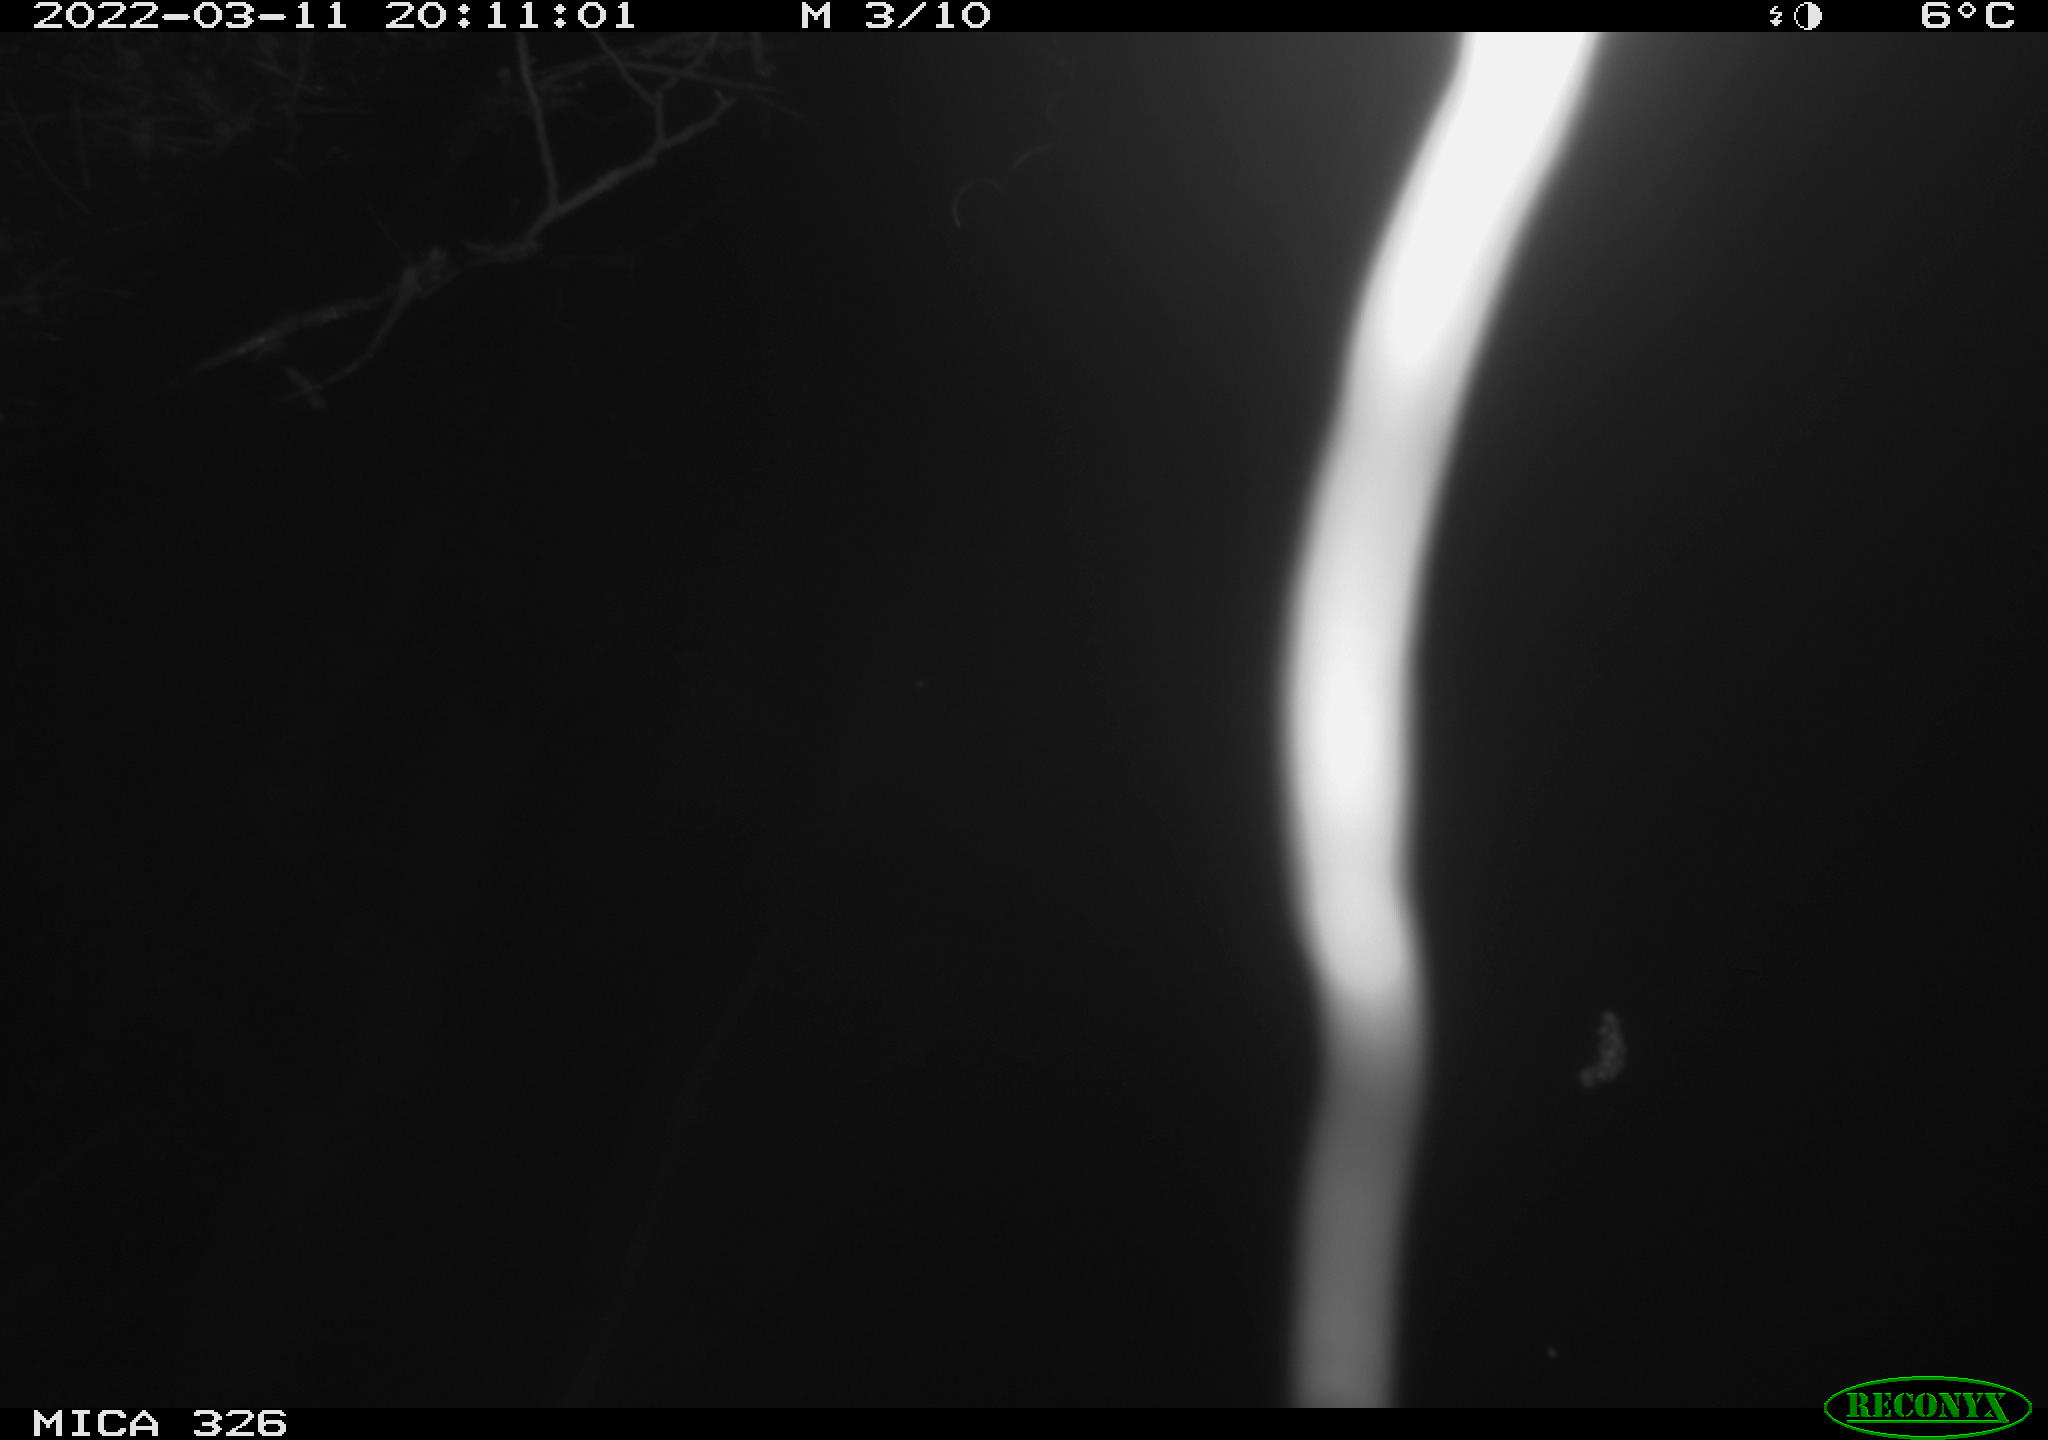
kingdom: Animalia
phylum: Chordata
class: Mammalia
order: Rodentia
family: Muridae
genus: Rattus
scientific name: Rattus norvegicus
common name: Brown rat
